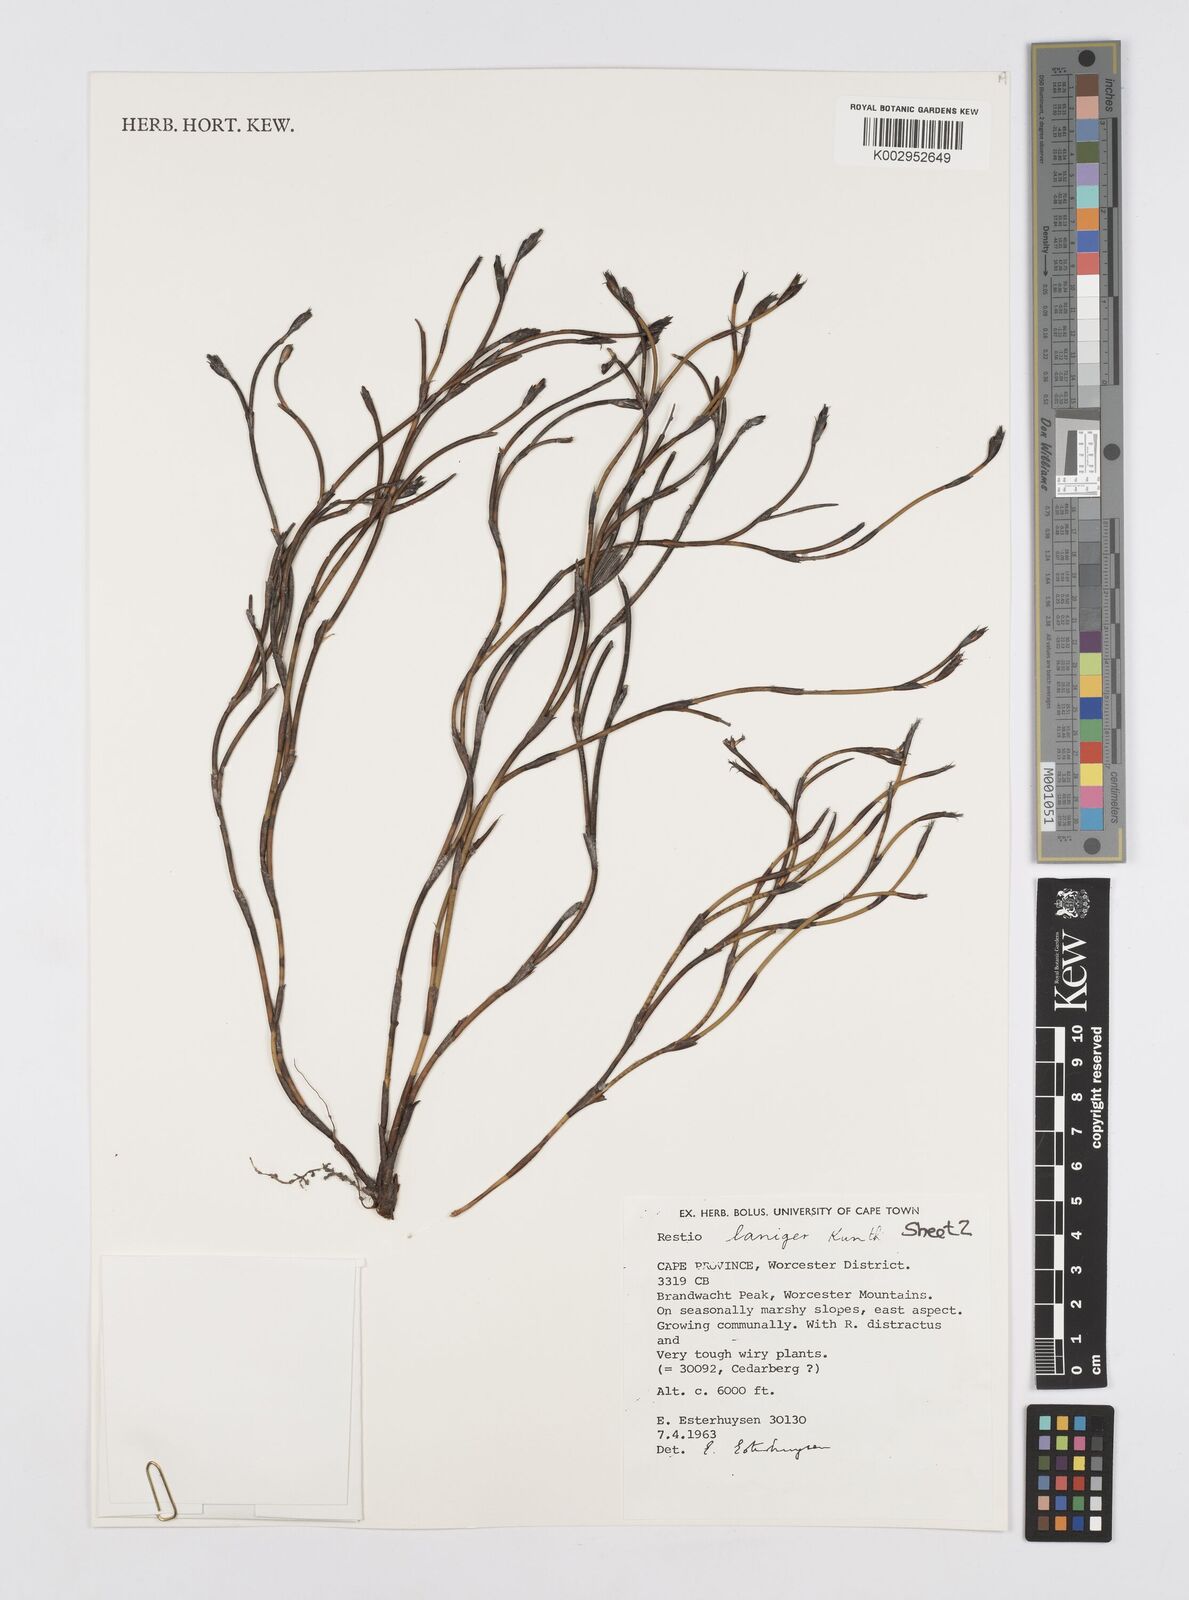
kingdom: Plantae
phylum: Tracheophyta
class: Liliopsida
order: Poales
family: Restionaceae
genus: Restio
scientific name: Restio laniger
